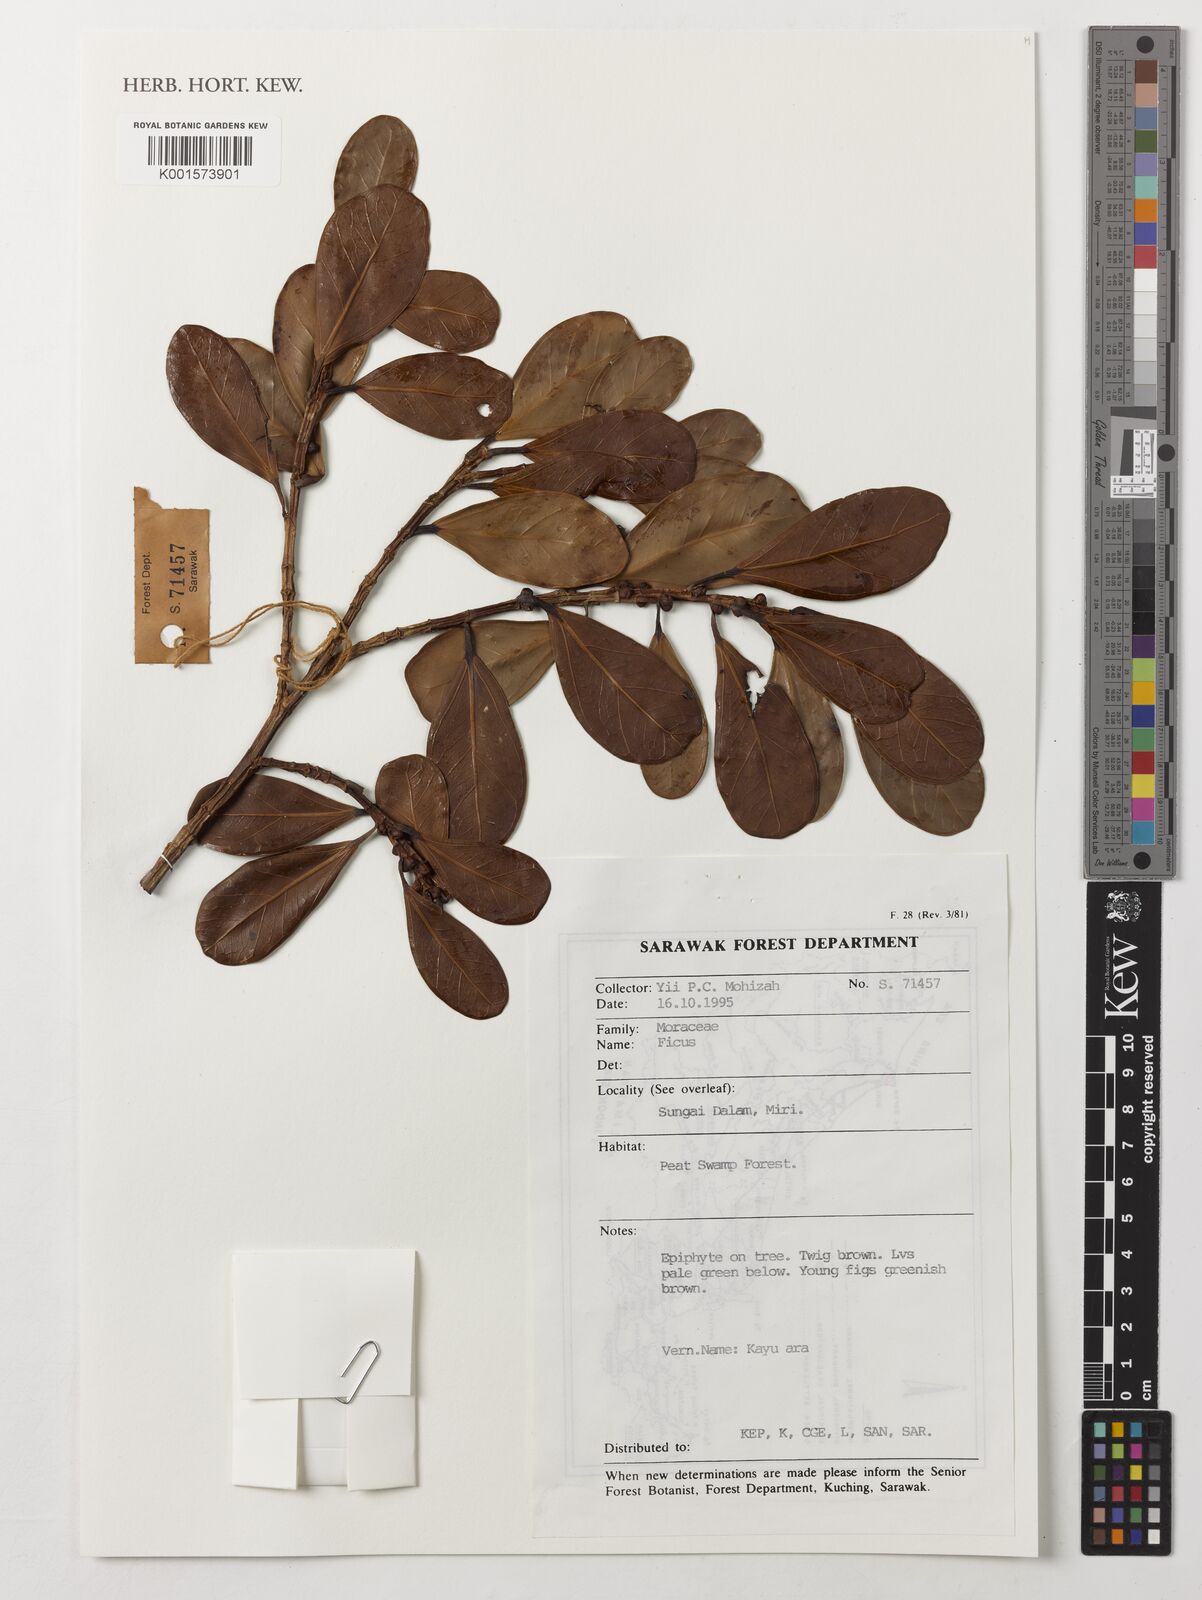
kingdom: Plantae
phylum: Tracheophyta
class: Magnoliopsida
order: Rosales
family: Moraceae
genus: Ficus
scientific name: Ficus
